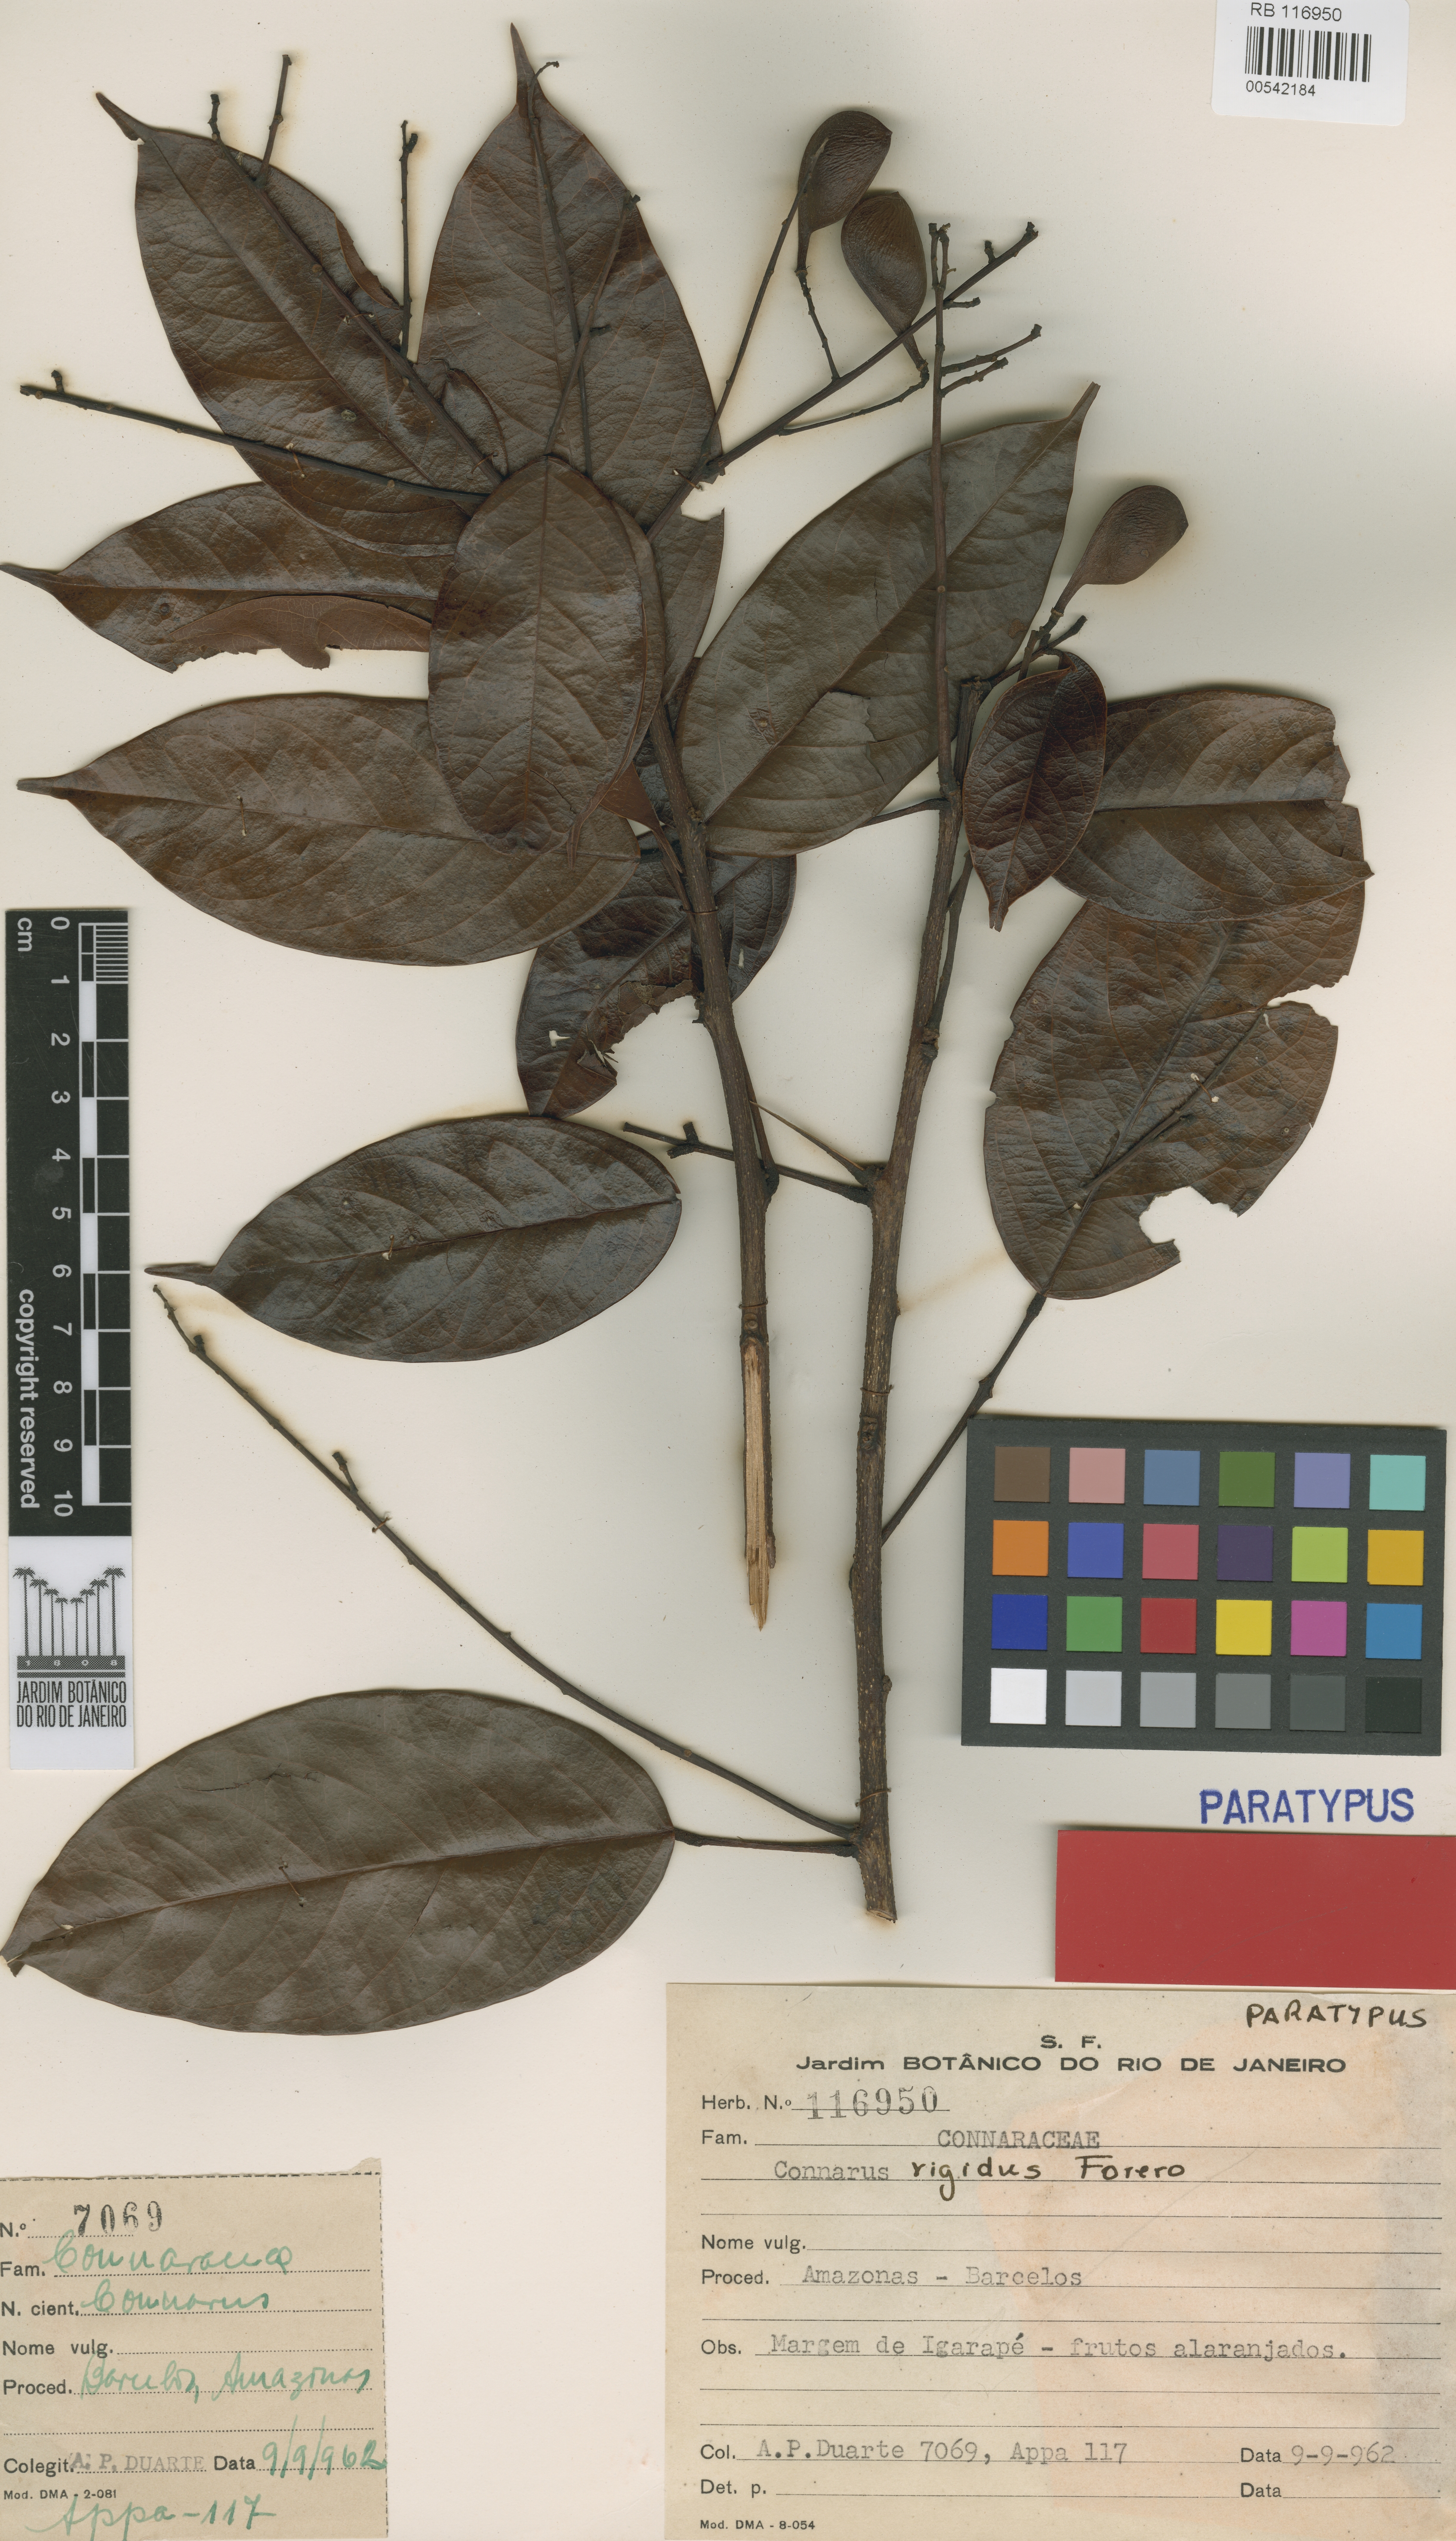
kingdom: Plantae
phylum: Tracheophyta
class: Magnoliopsida
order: Oxalidales
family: Connaraceae
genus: Connarus
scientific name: Connarus rigidus
